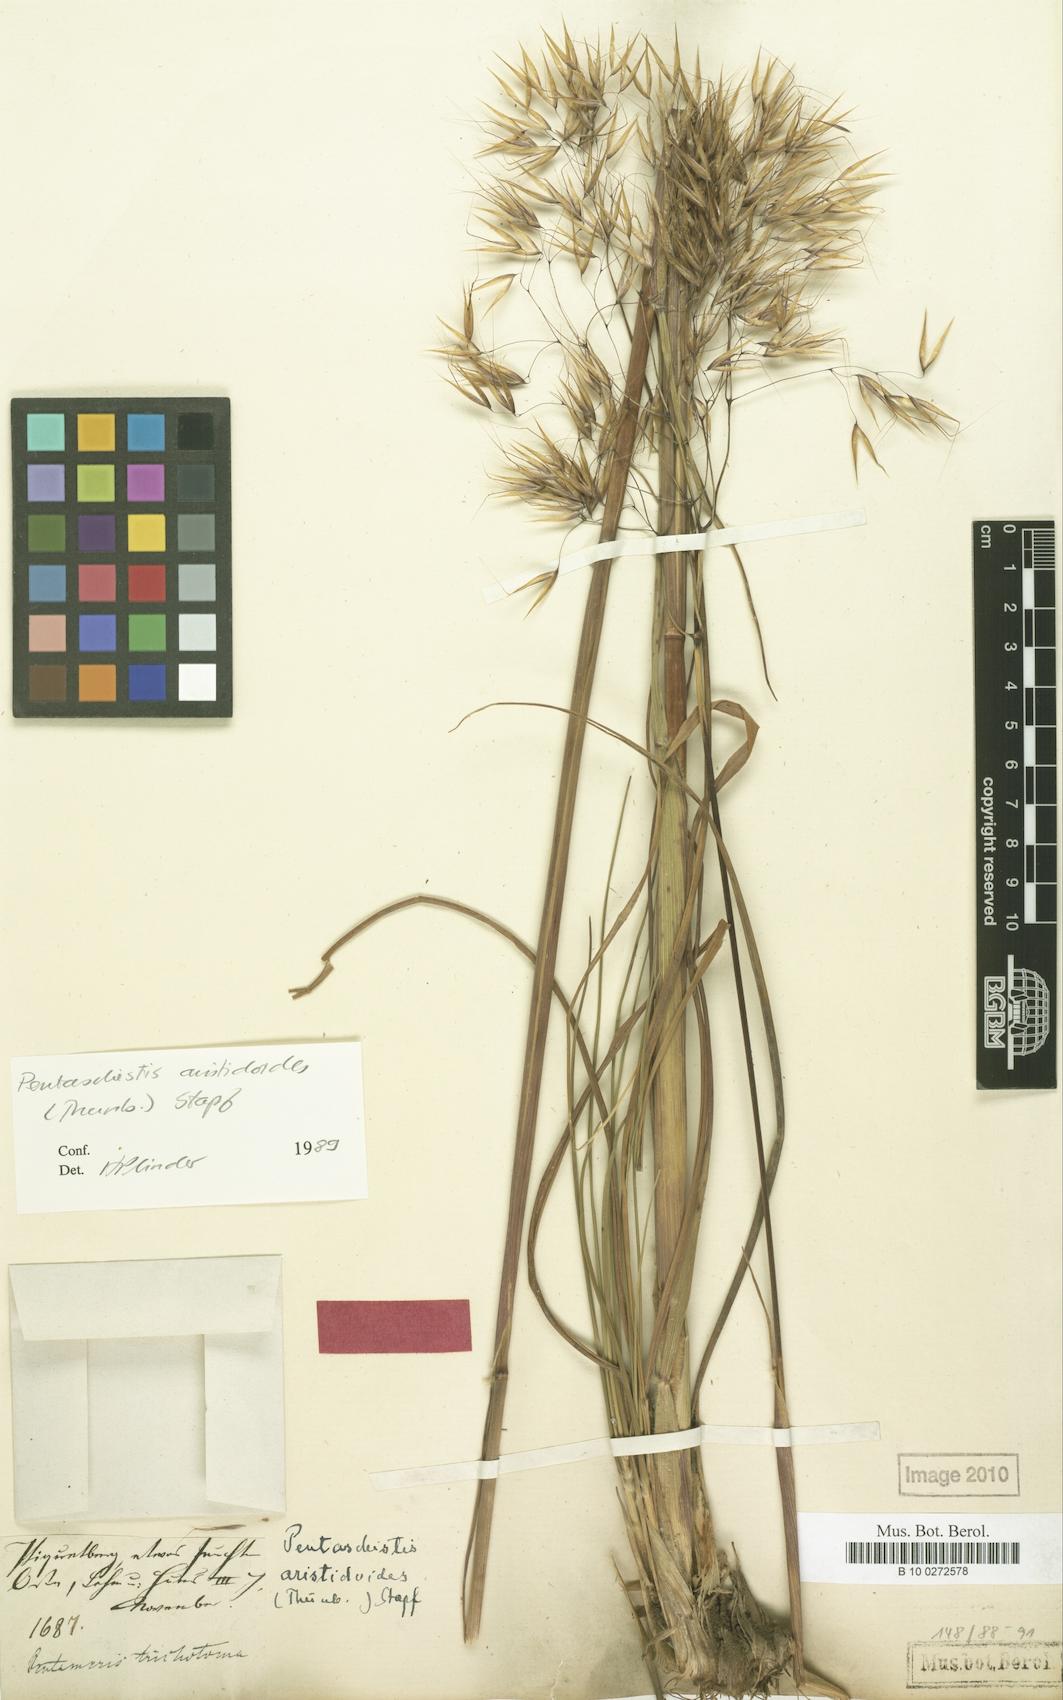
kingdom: Plantae
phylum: Tracheophyta
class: Liliopsida
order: Poales
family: Poaceae
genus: Pentameris
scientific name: Pentameris aristidoides
